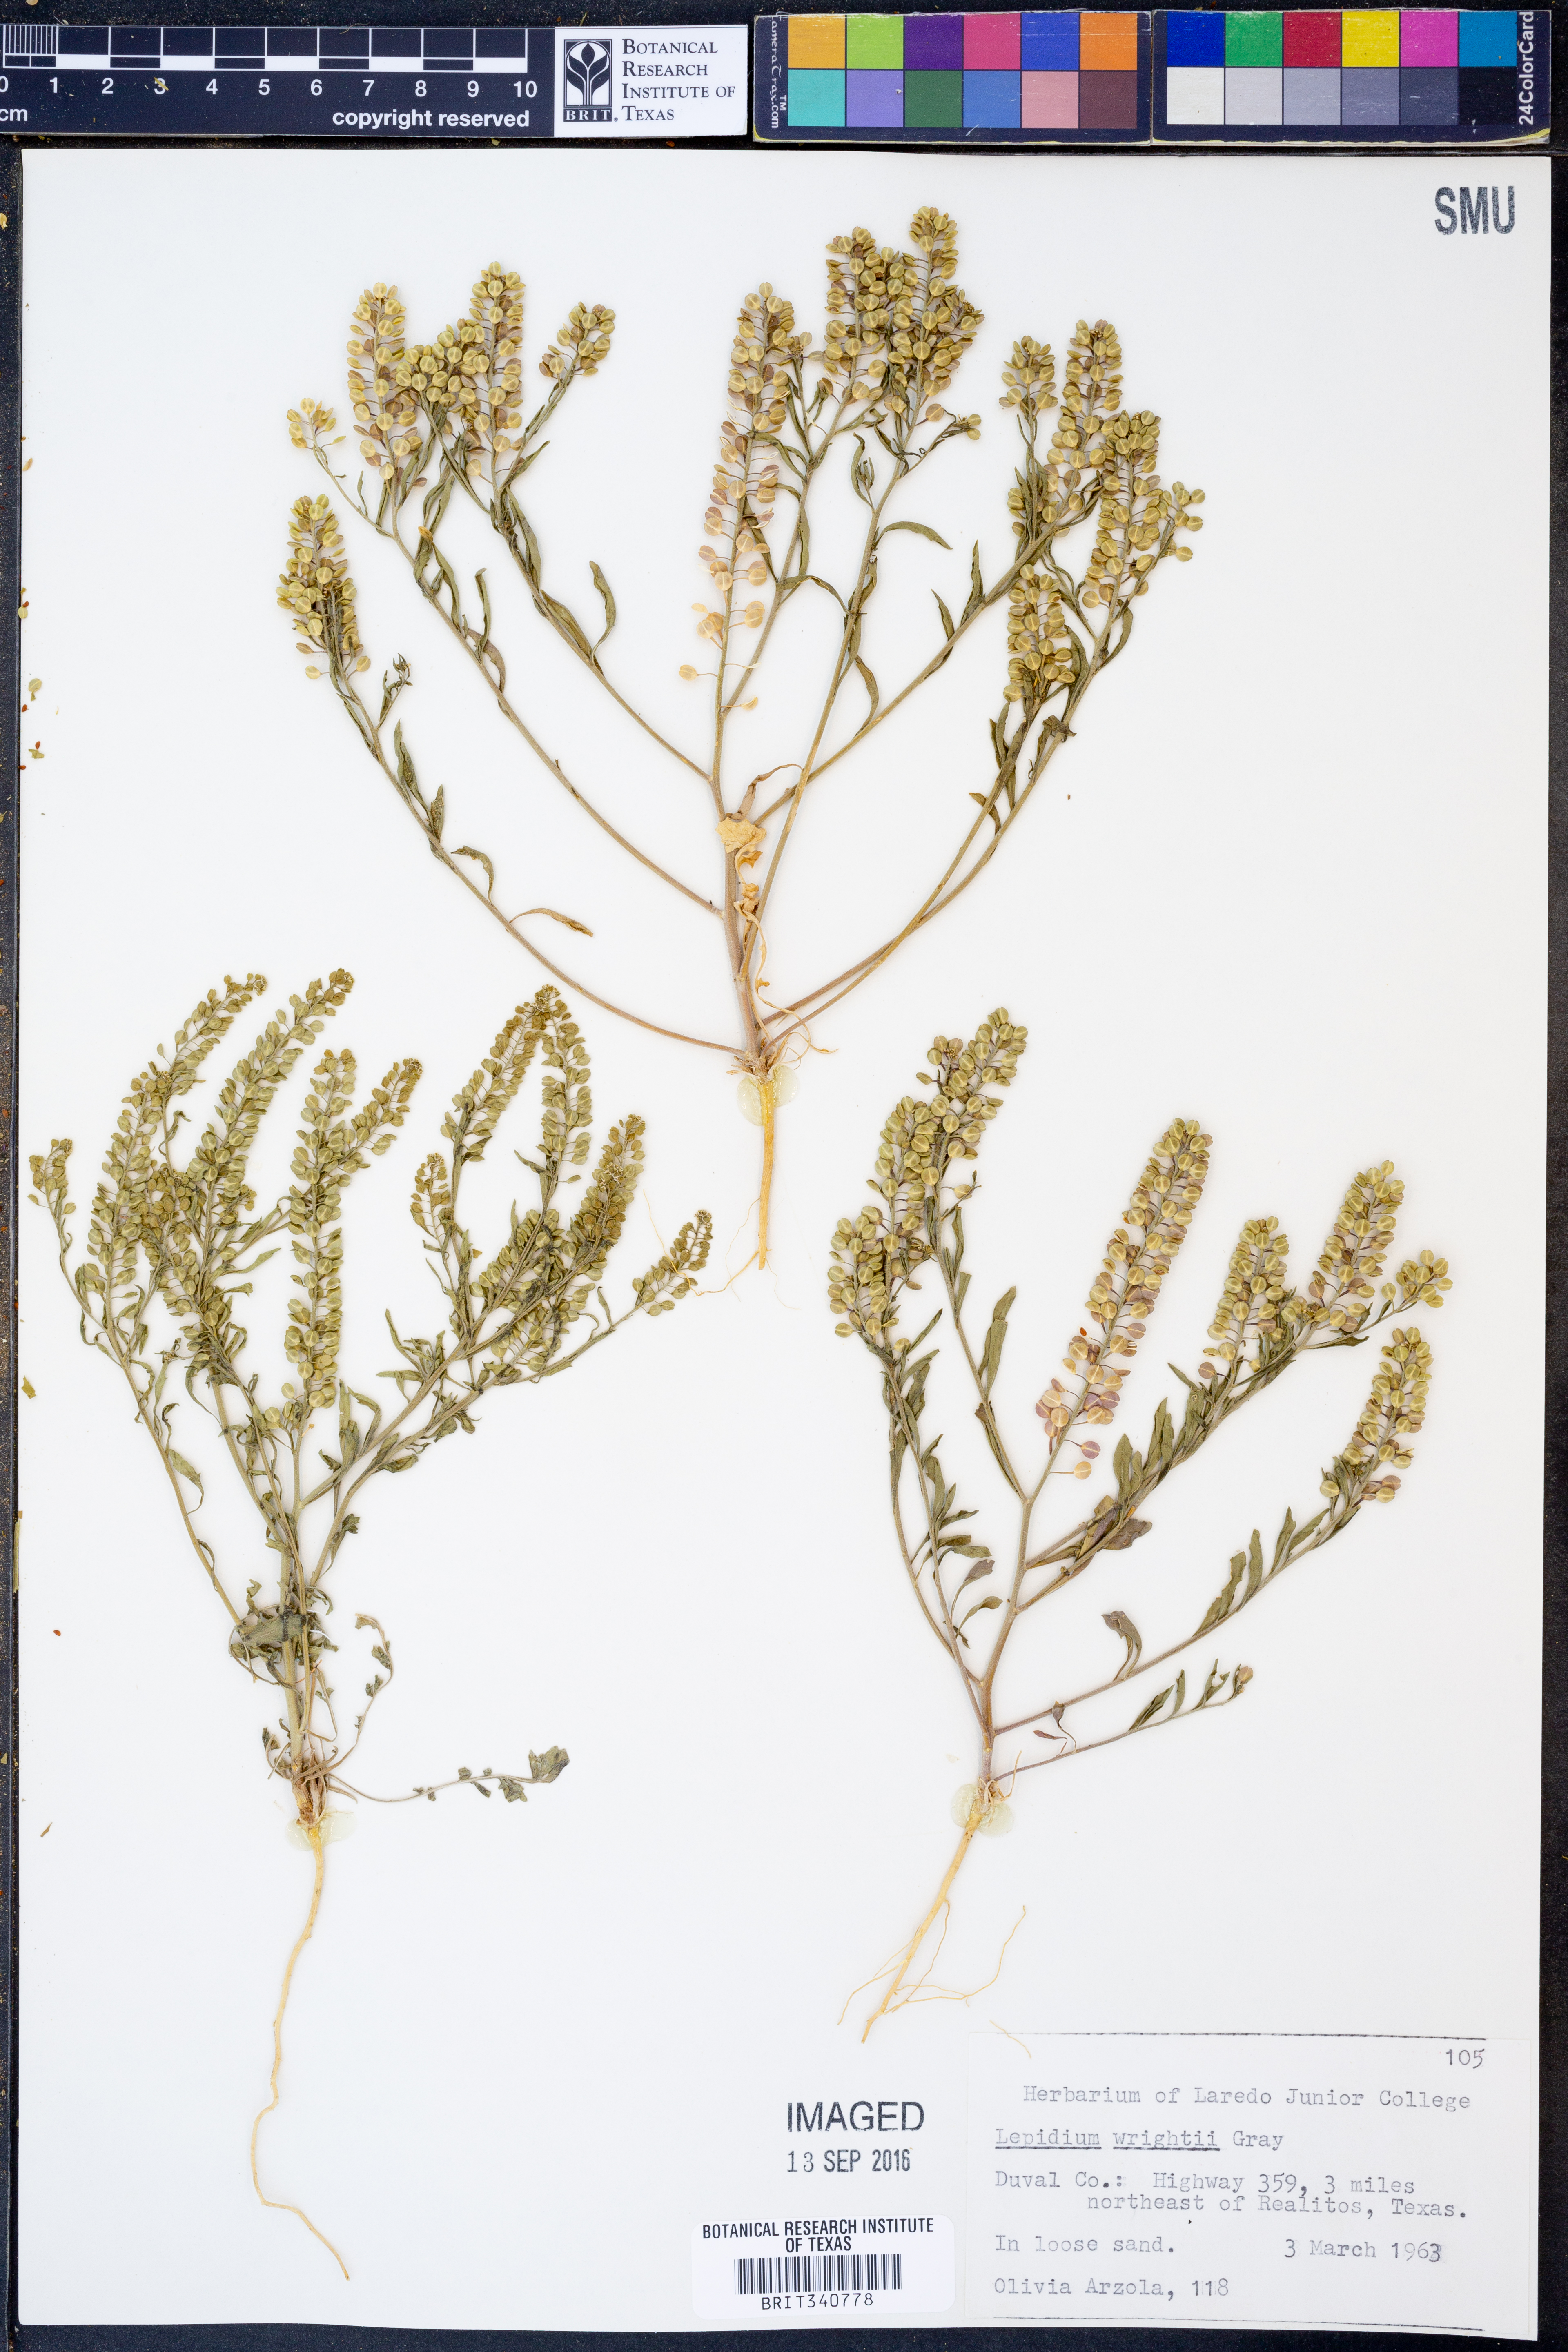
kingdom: Plantae
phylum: Tracheophyta
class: Magnoliopsida
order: Brassicales
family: Brassicaceae
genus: Lepidium
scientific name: Lepidium lasiocarpum
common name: Hairy-pod pepperwort
